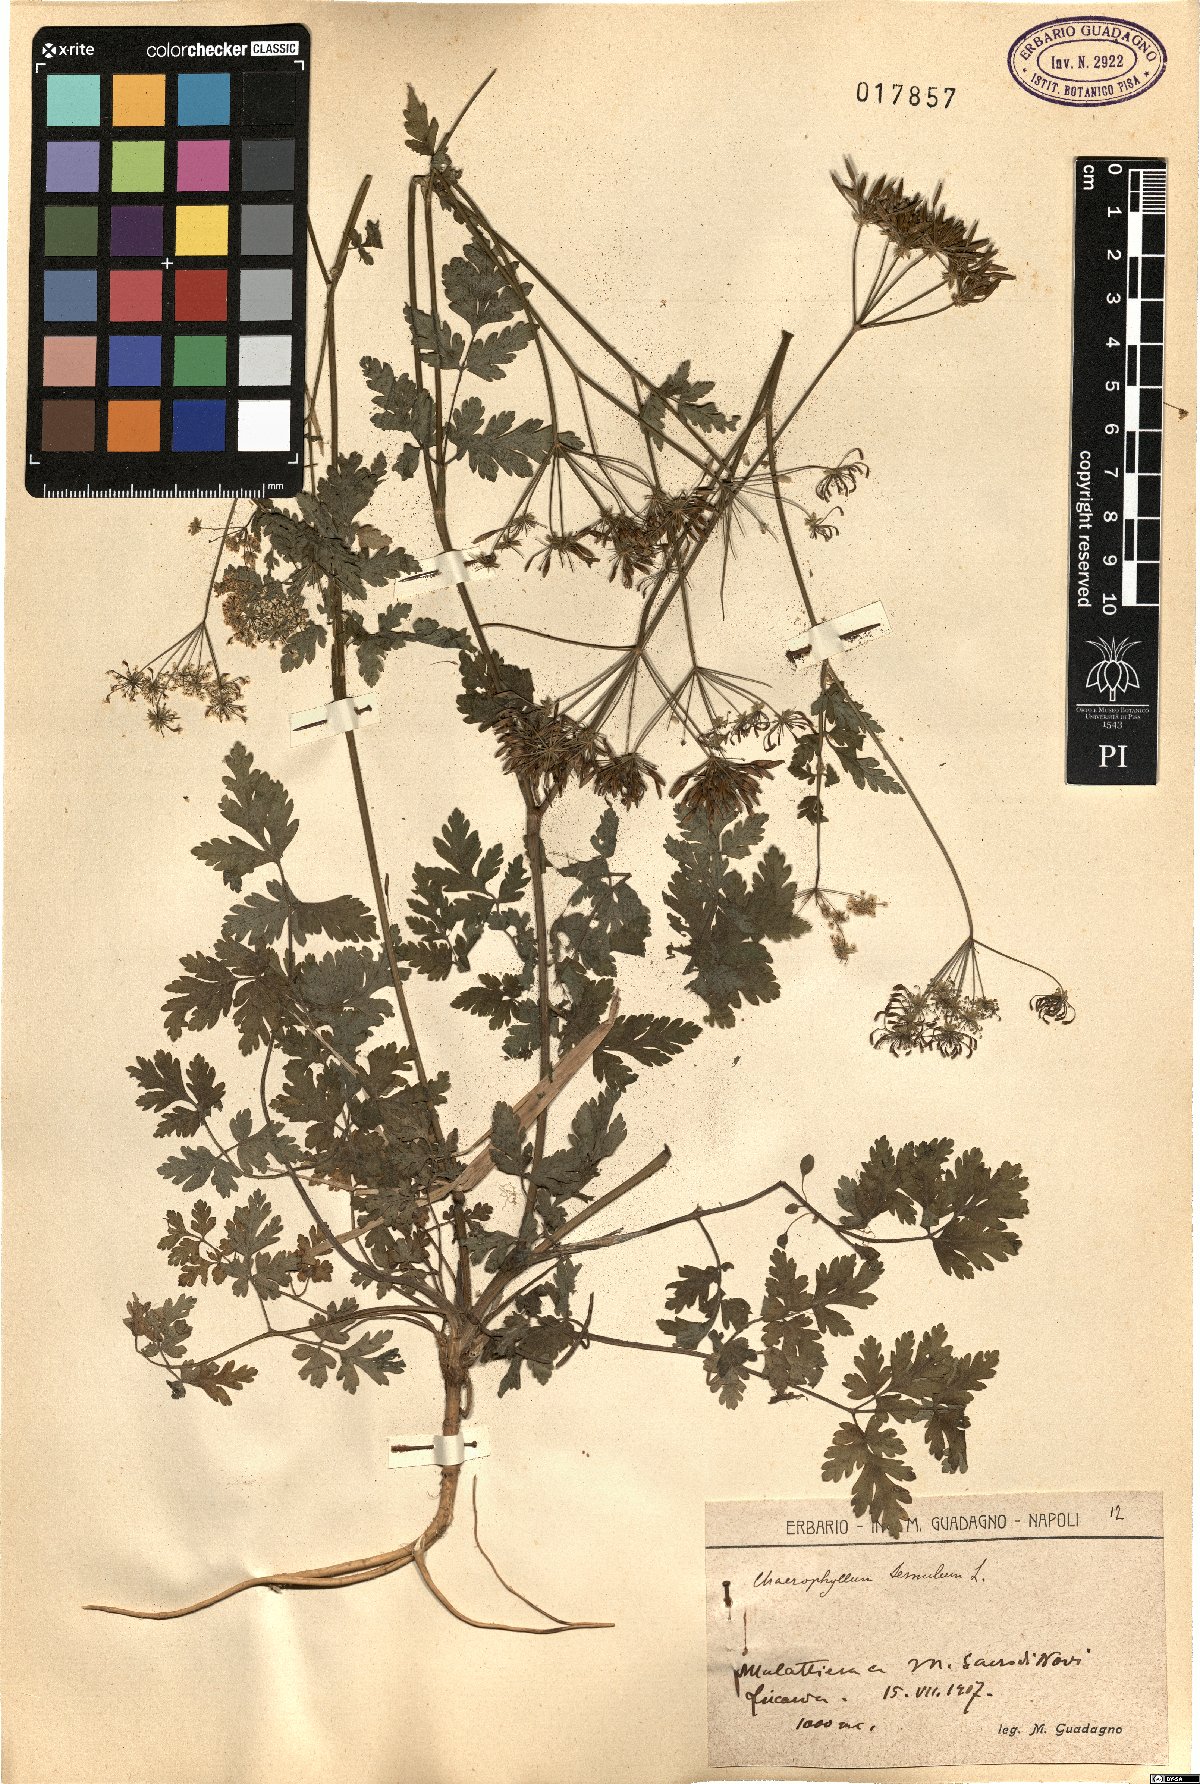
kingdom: Plantae
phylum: Tracheophyta
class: Magnoliopsida
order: Apiales
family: Apiaceae
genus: Chaerophyllum
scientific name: Chaerophyllum temulum
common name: Rough chervil
